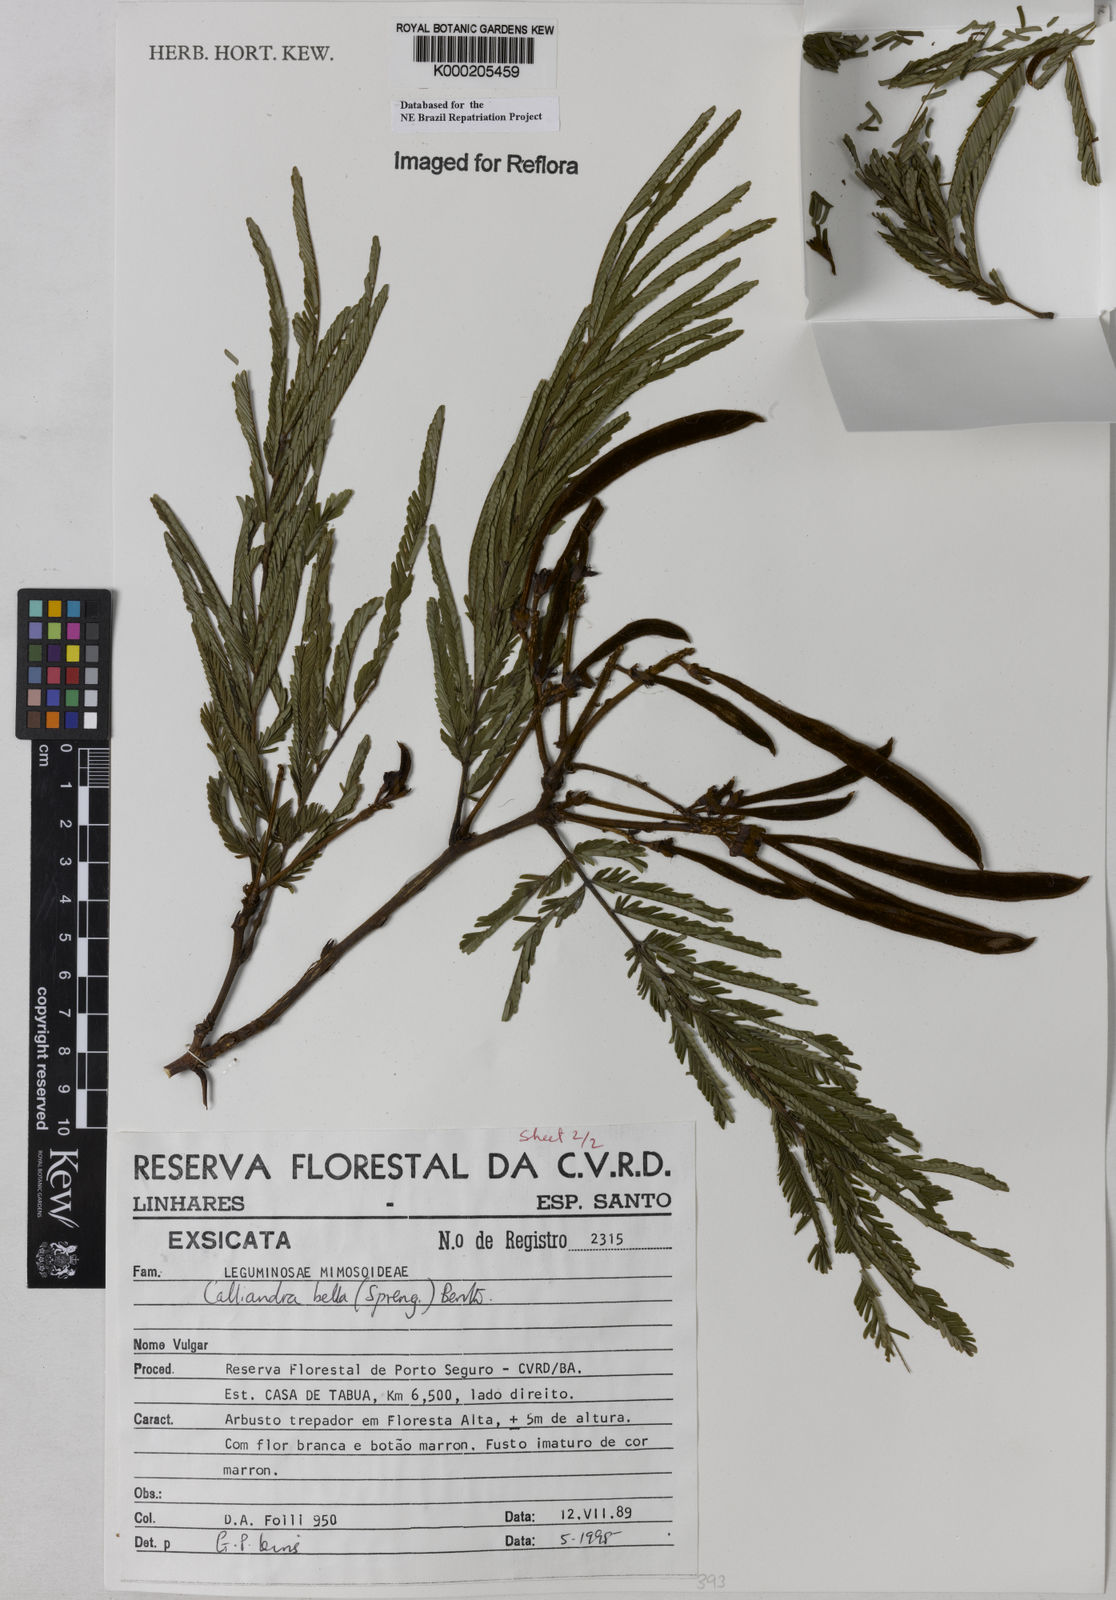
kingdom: Plantae
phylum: Tracheophyta
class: Magnoliopsida
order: Fabales
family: Fabaceae
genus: Calliandra
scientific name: Calliandra bella
